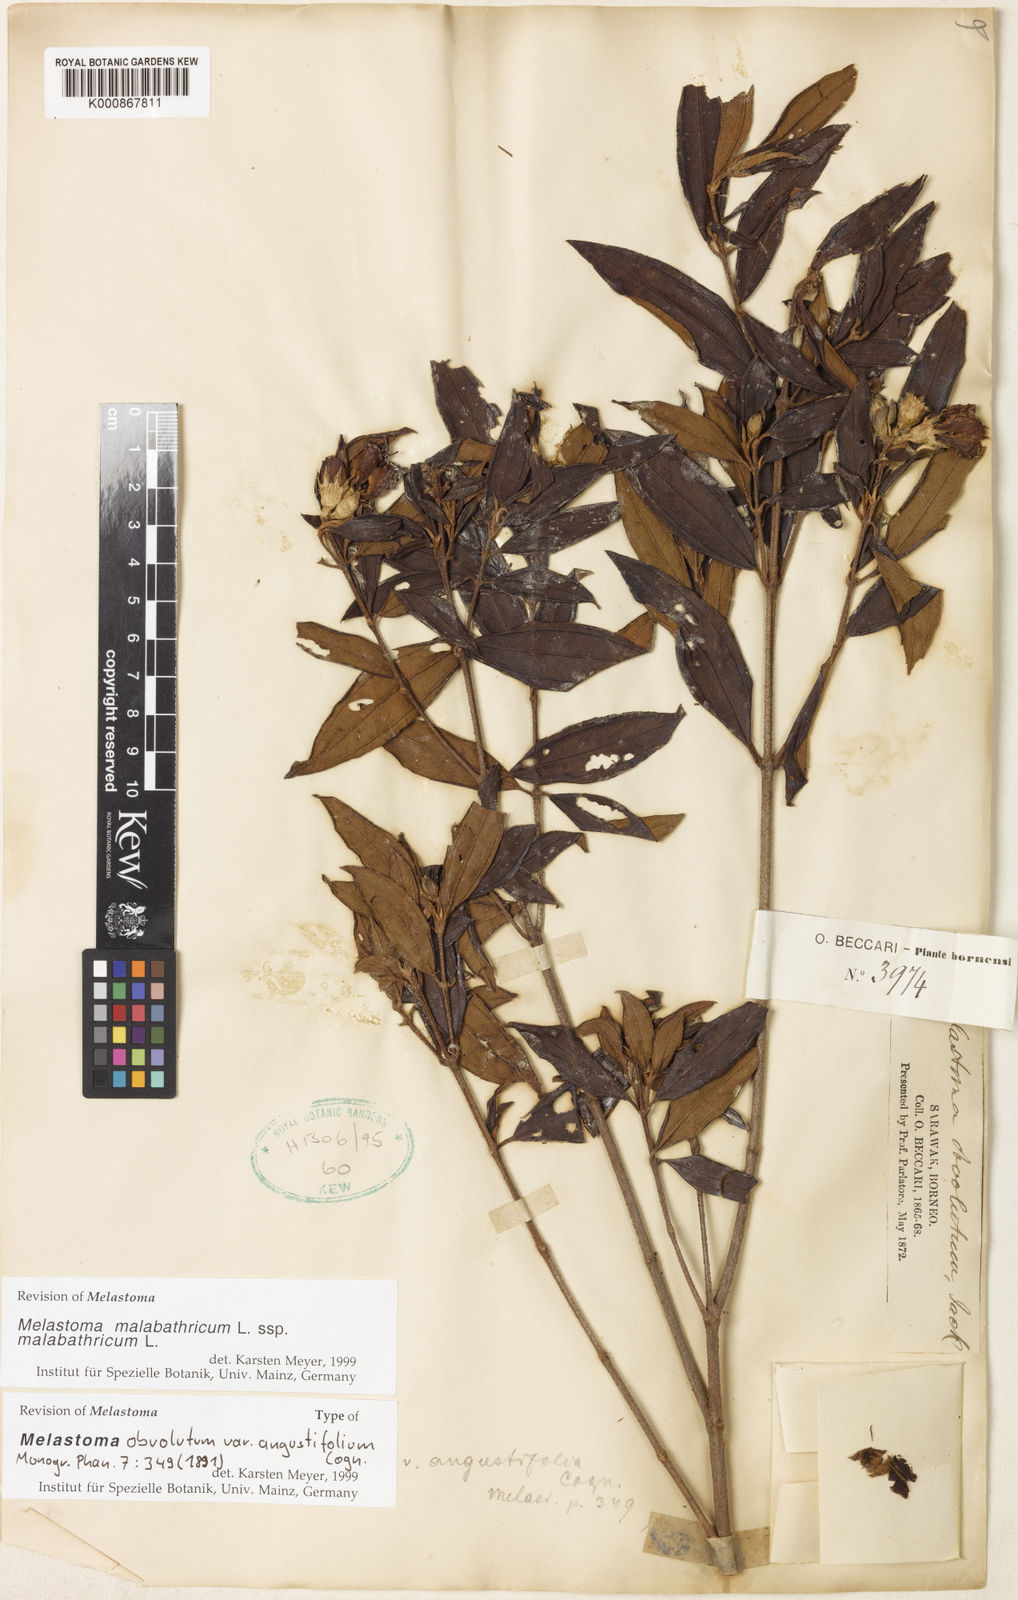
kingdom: Plantae
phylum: Tracheophyta
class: Magnoliopsida
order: Myrtales
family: Melastomataceae
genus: Melastoma
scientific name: Melastoma malabathricum
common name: Indian-rhododendron
